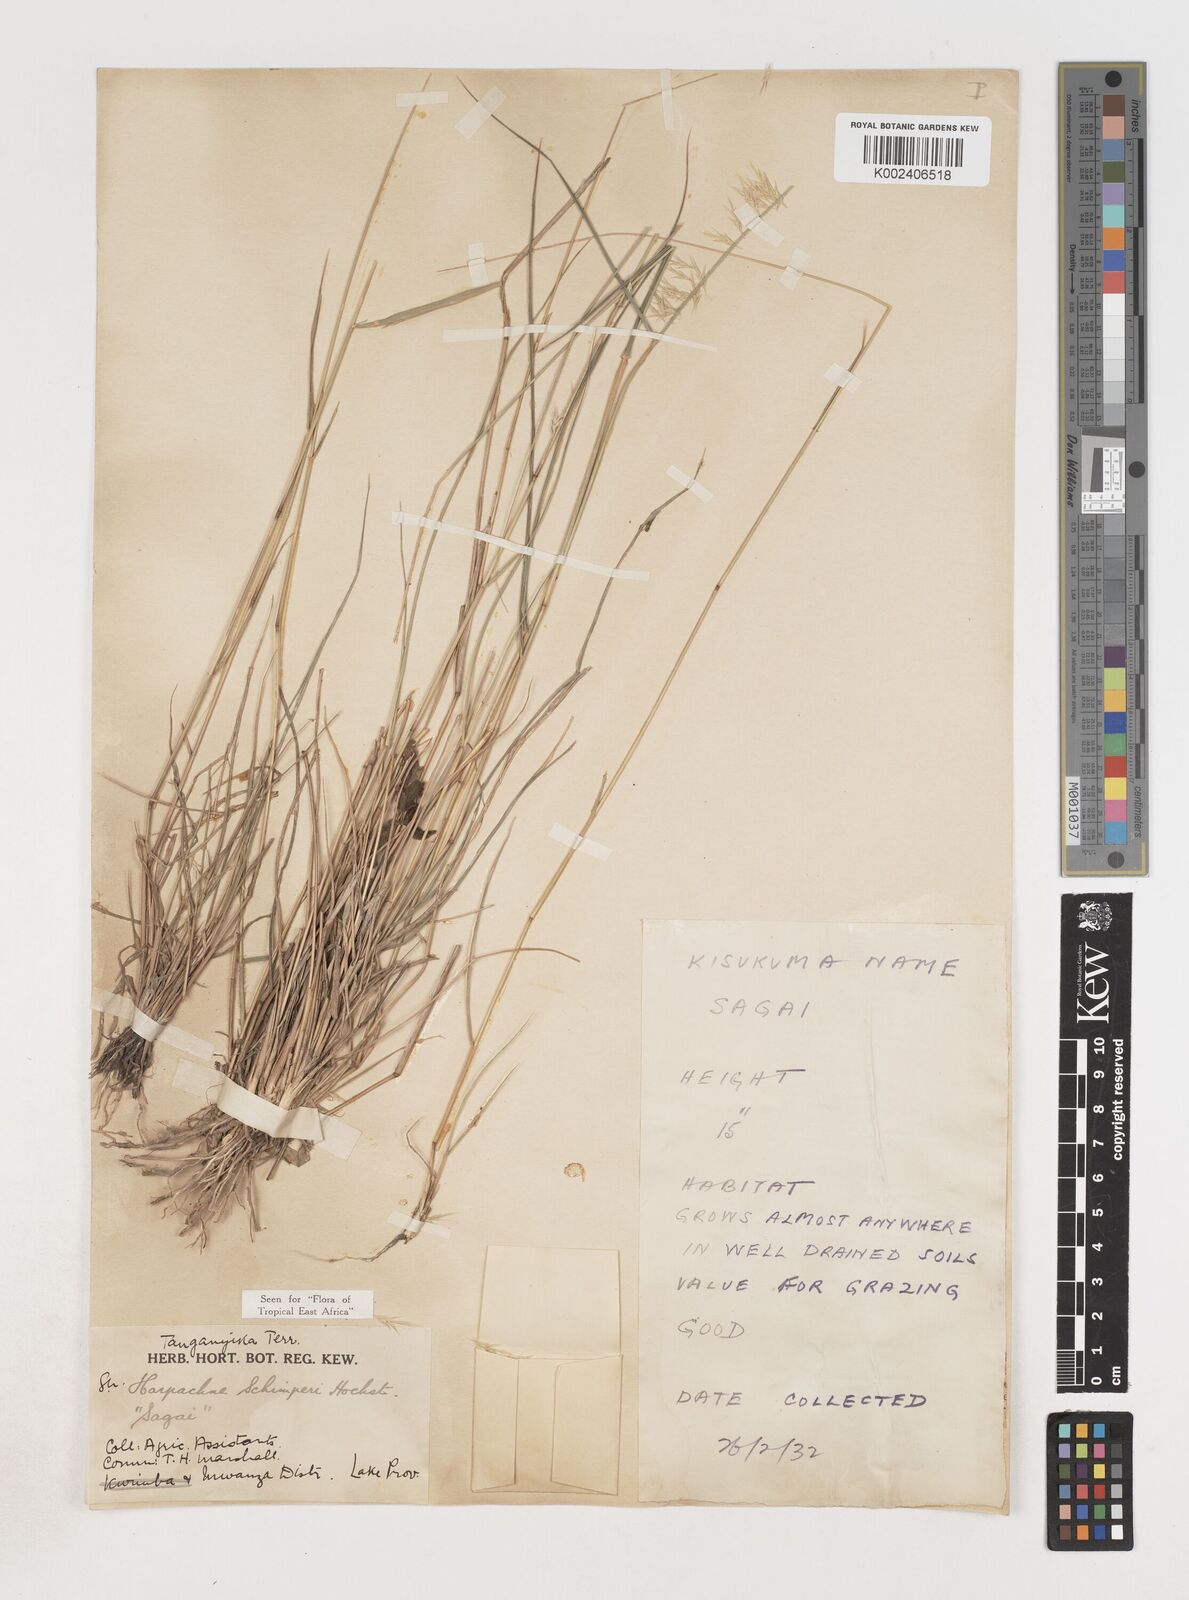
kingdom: Plantae
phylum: Tracheophyta
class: Liliopsida
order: Poales
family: Poaceae
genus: Harpachne
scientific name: Harpachne schimperi
